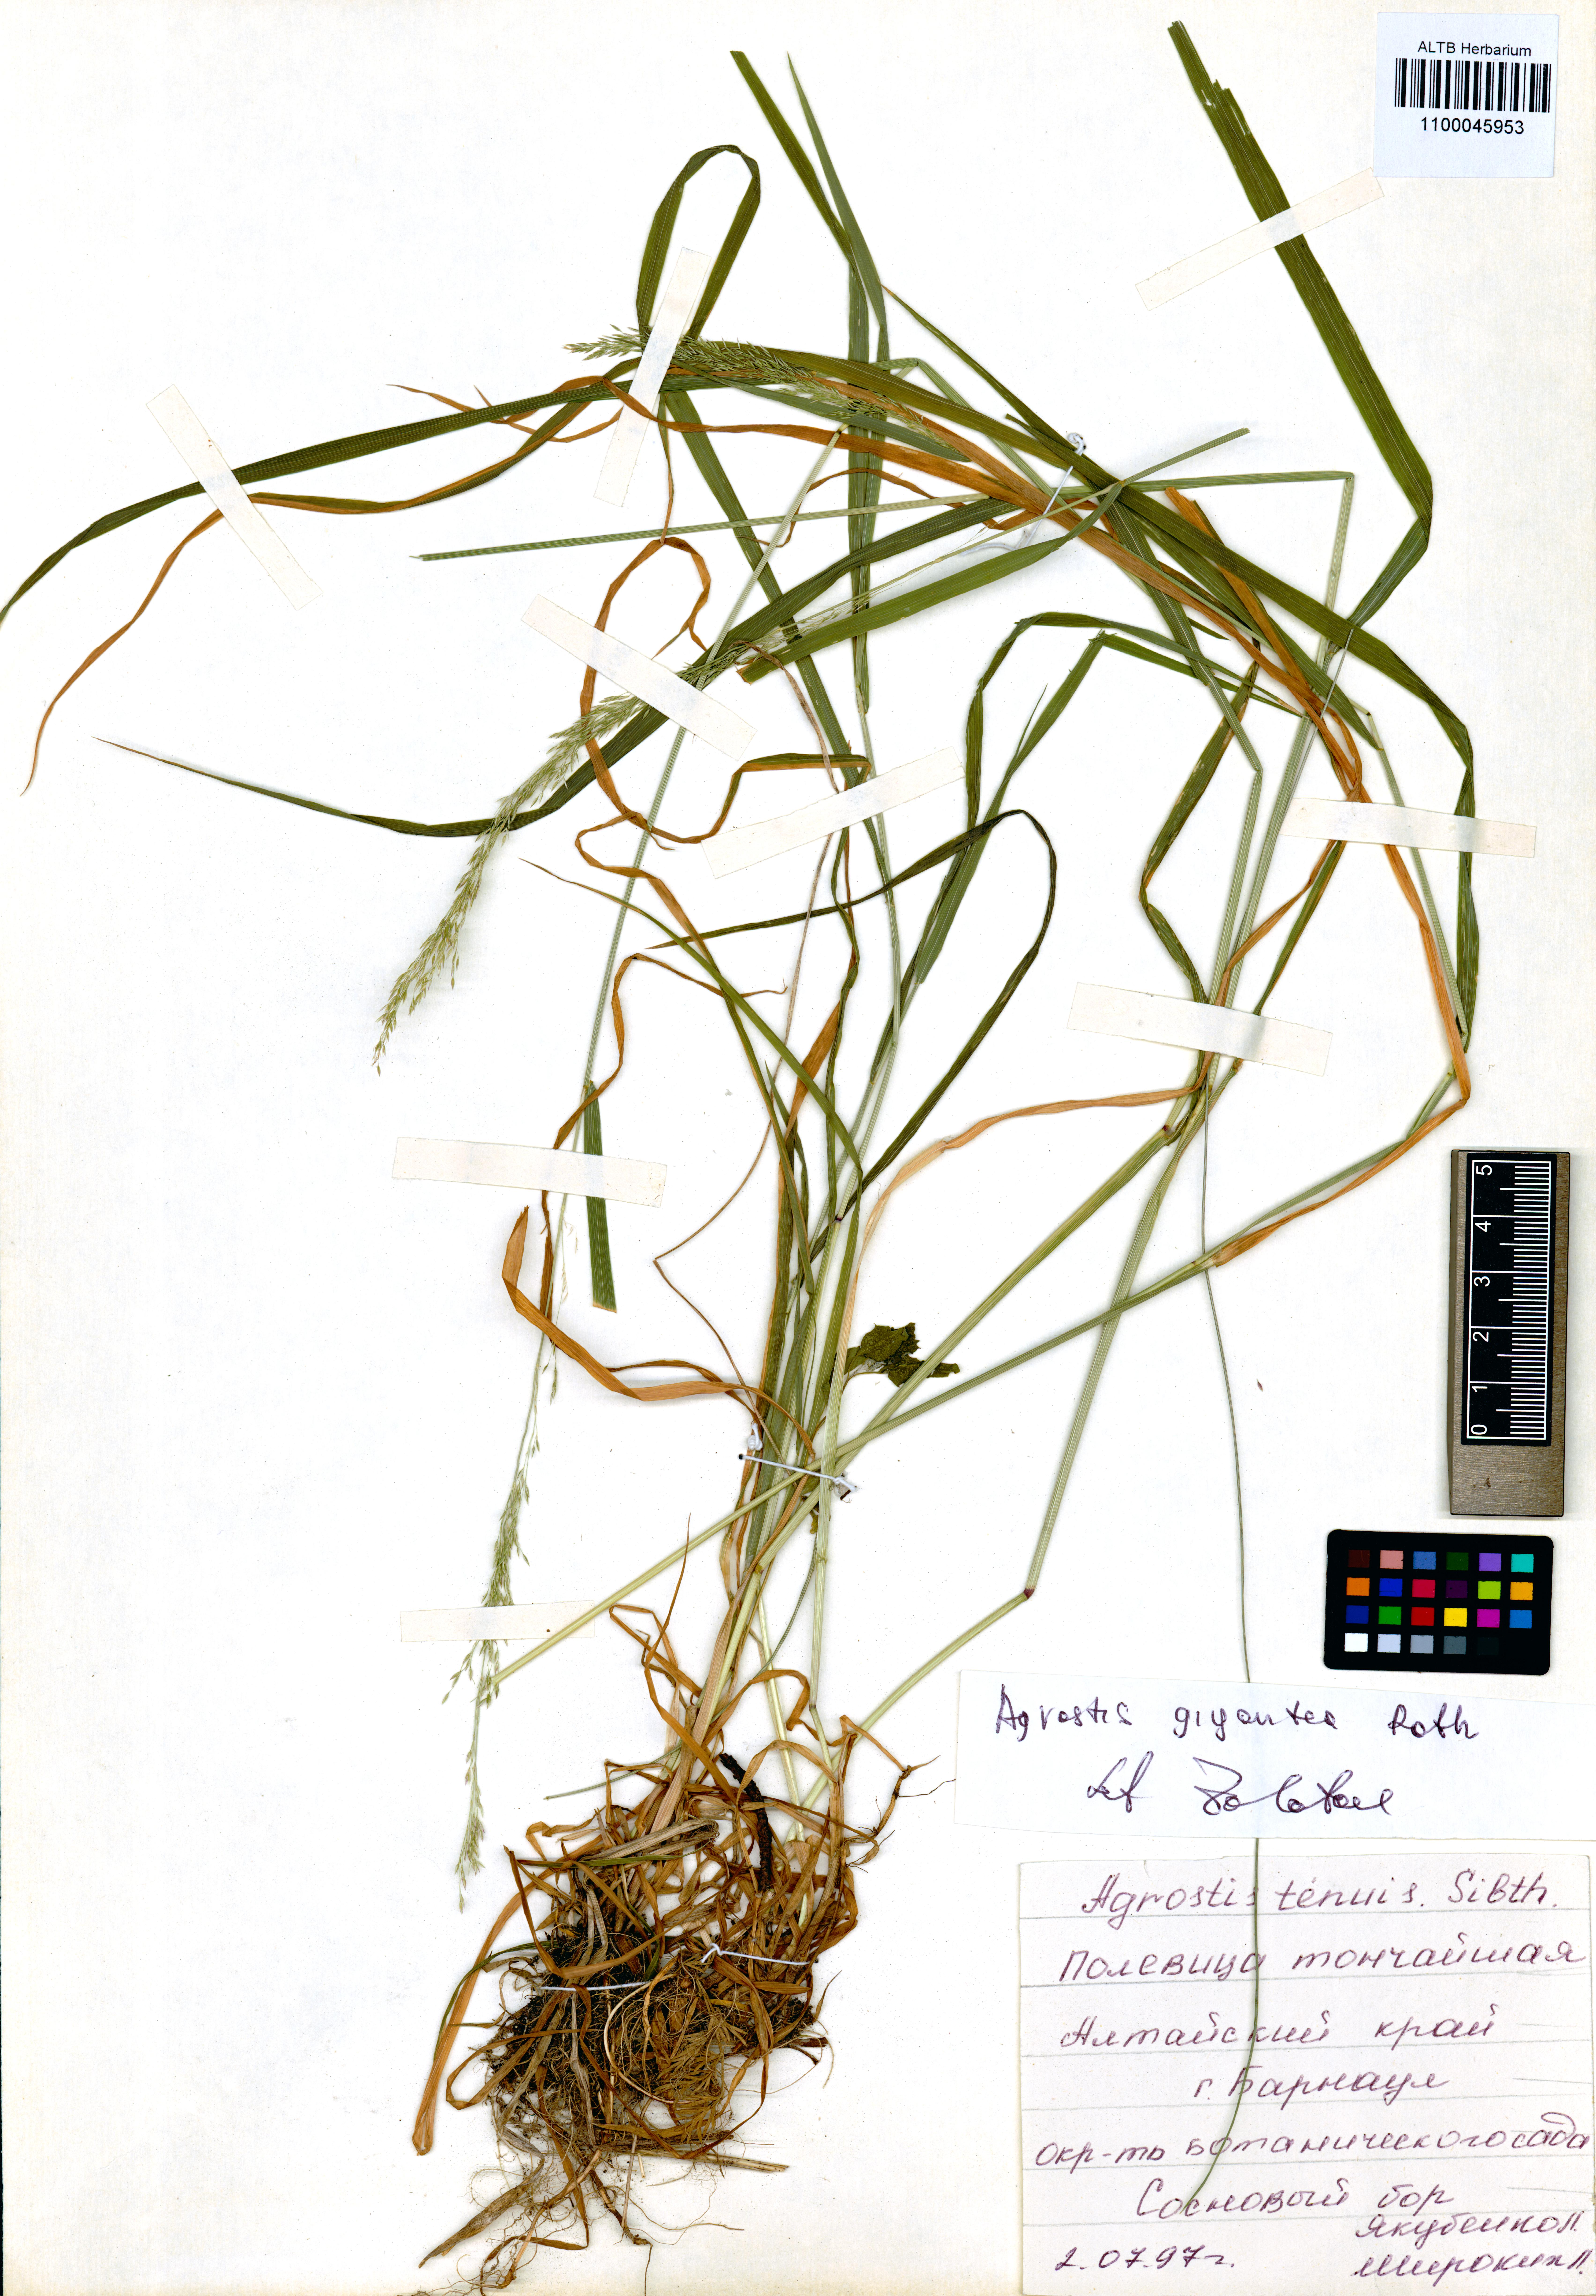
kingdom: Plantae
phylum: Tracheophyta
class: Liliopsida
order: Poales
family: Poaceae
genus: Agrostis
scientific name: Agrostis gigantea
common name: Black bent
